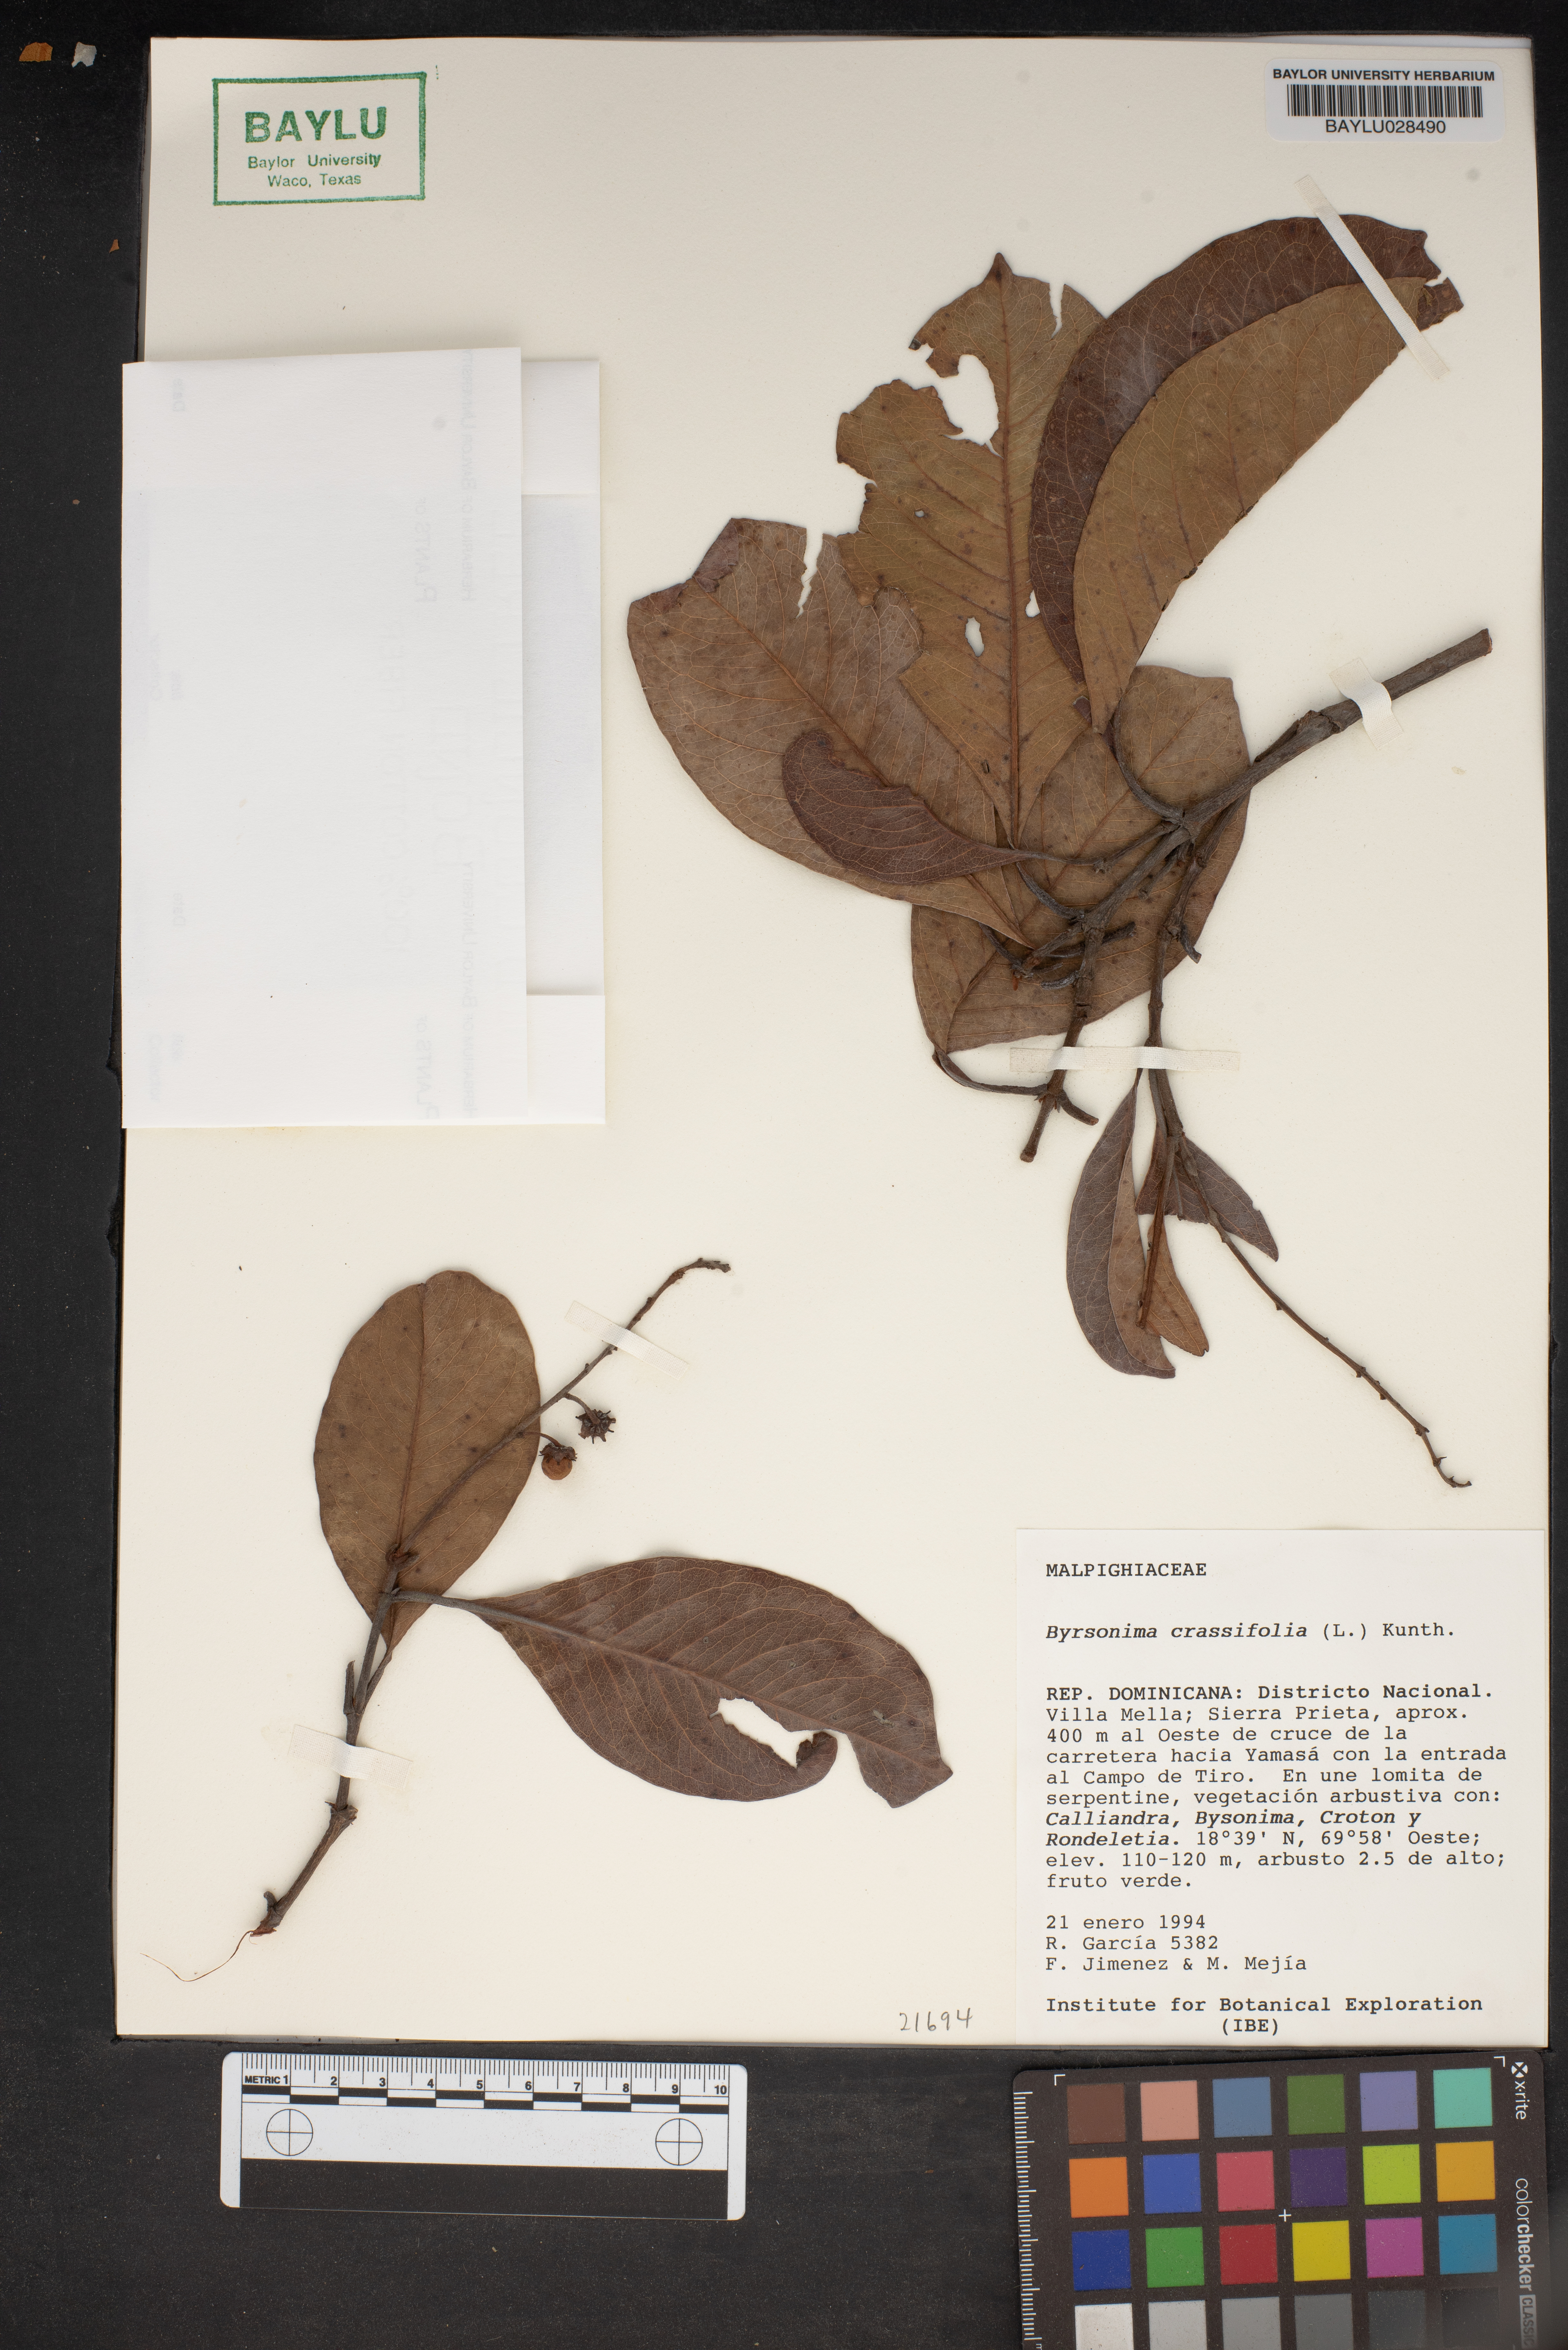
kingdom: Plantae
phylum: Tracheophyta
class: Magnoliopsida
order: Malpighiales
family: Malpighiaceae
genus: Byrsonima
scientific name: Byrsonima crassifolia
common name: Golden spoon
